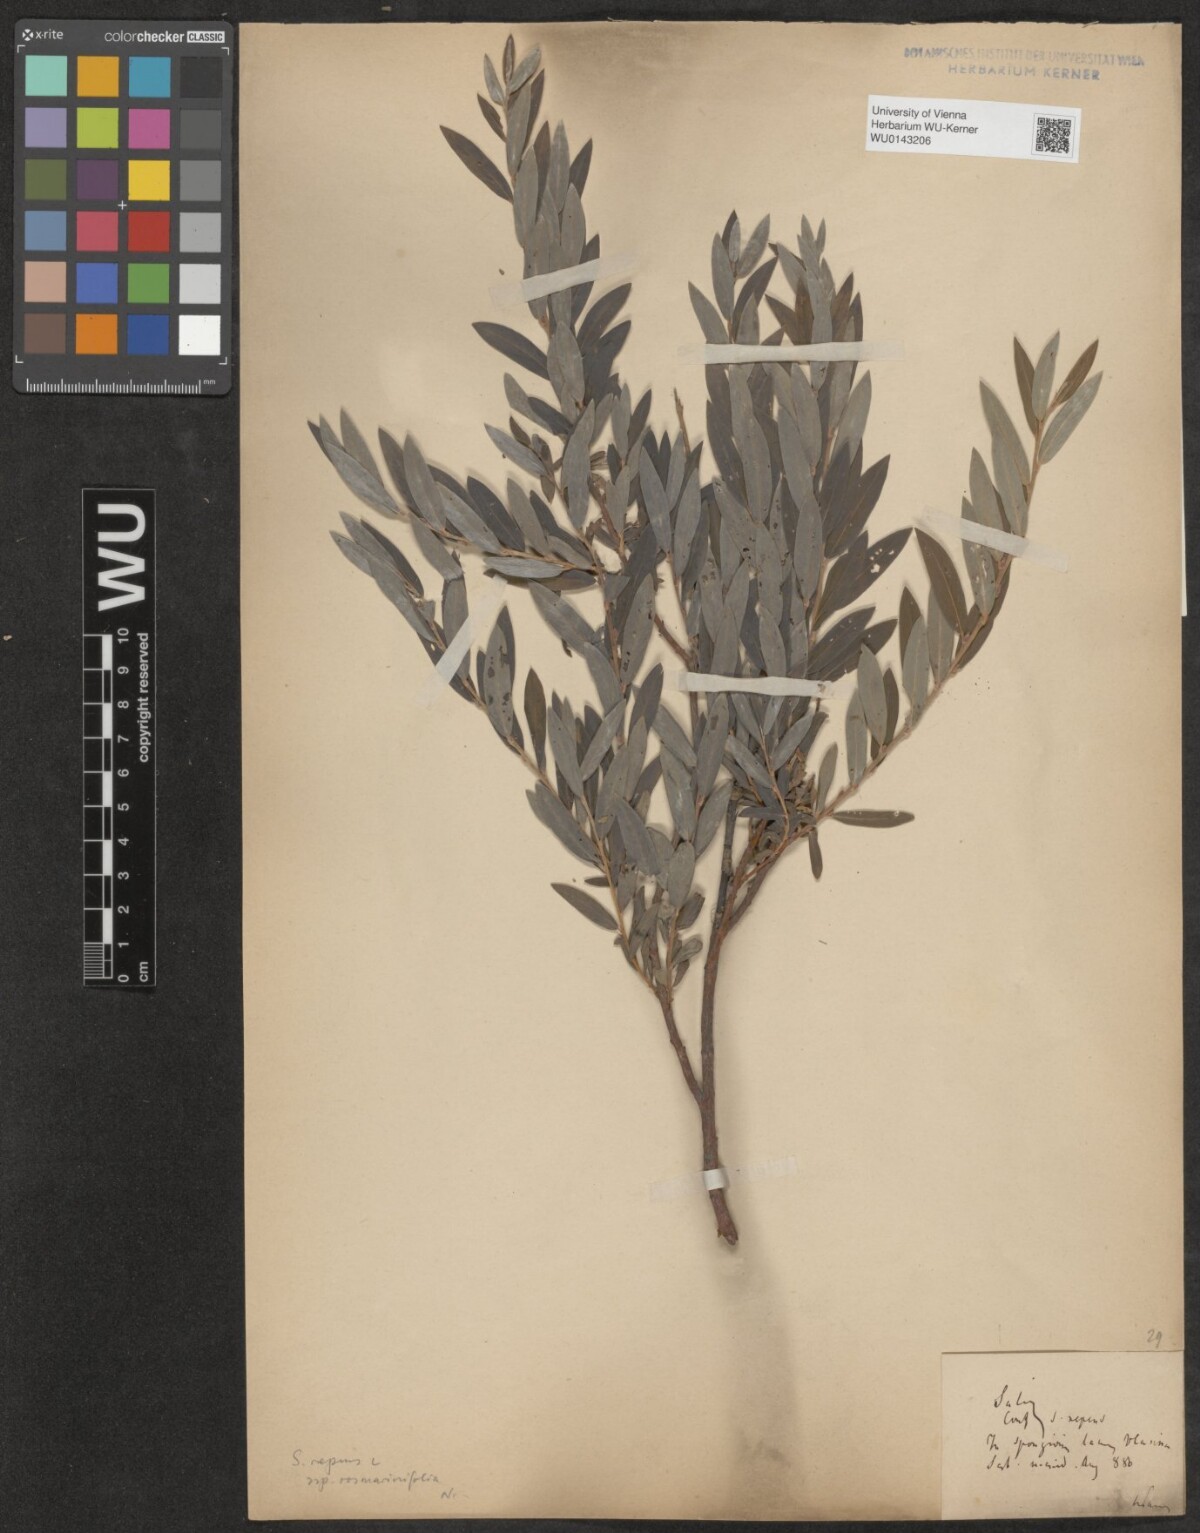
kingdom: Plantae
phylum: Tracheophyta
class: Magnoliopsida
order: Malpighiales
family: Salicaceae
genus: Salix
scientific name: Salix repens
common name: Creeping willow
